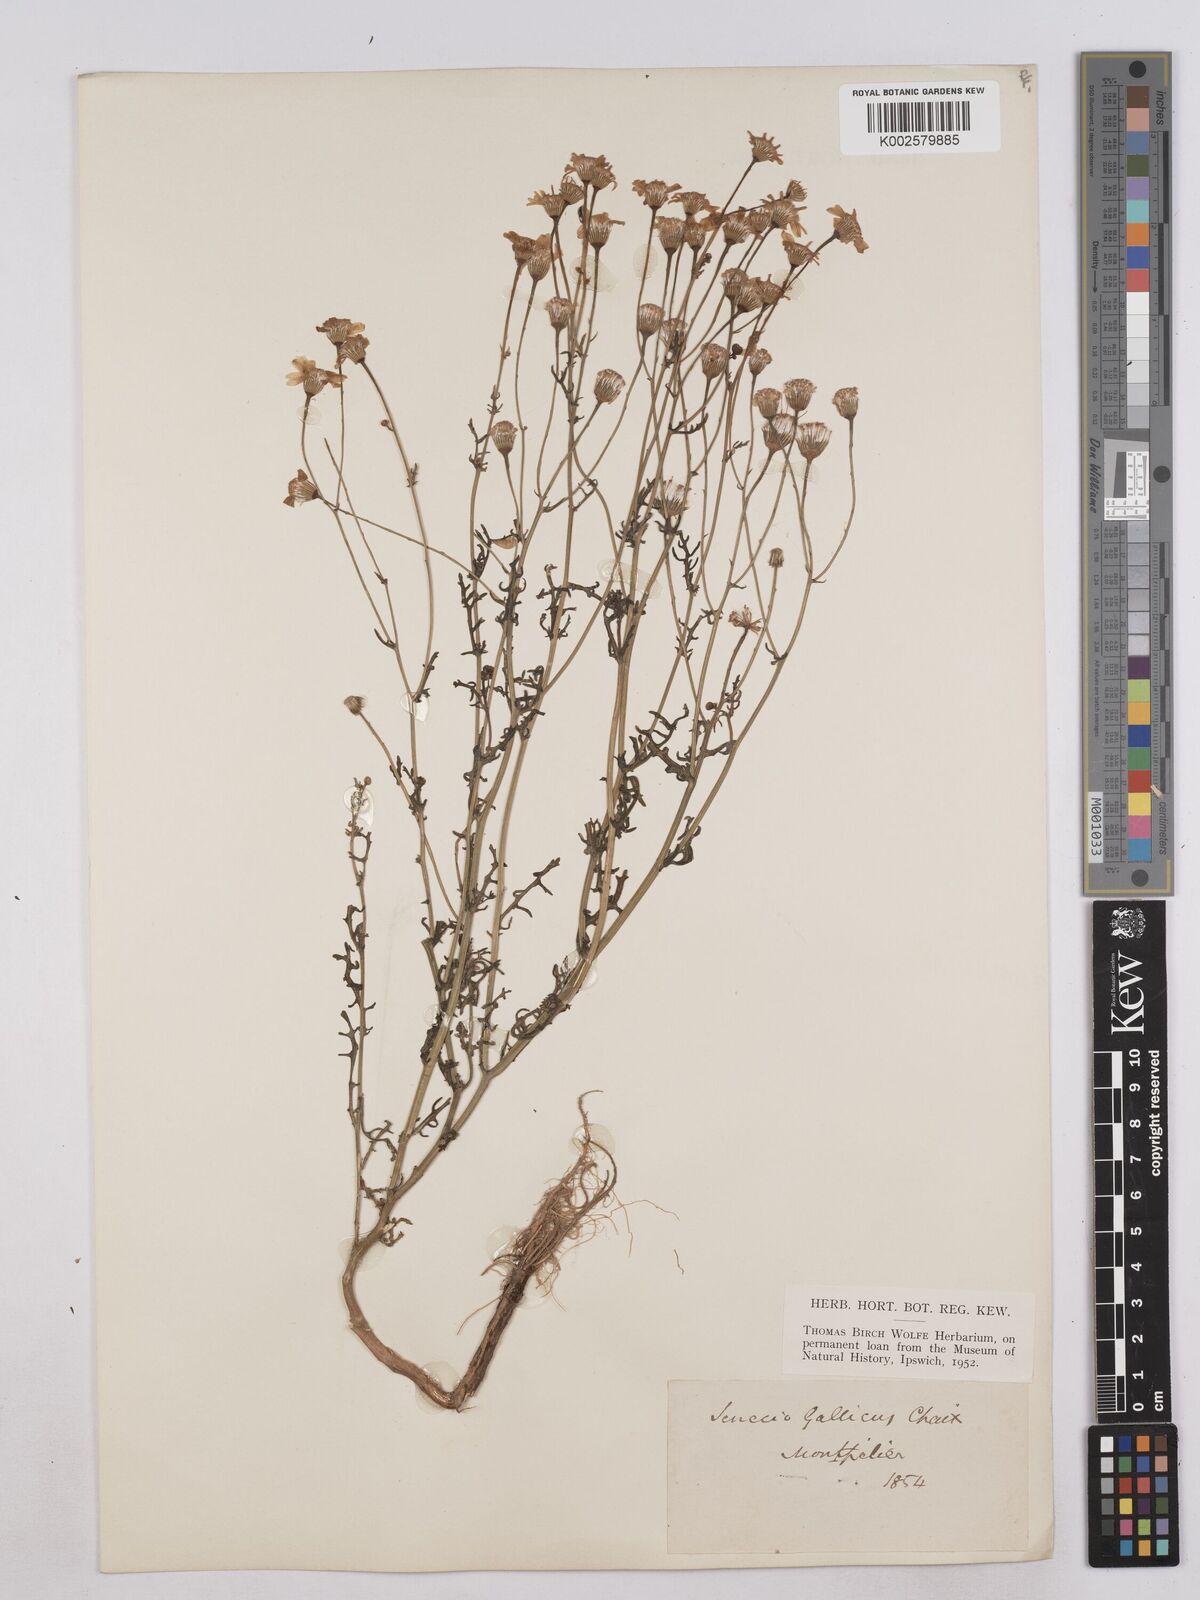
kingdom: Plantae
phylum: Tracheophyta
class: Magnoliopsida
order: Asterales
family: Asteraceae
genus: Senecio
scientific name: Senecio gallicus
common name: French groundsel
